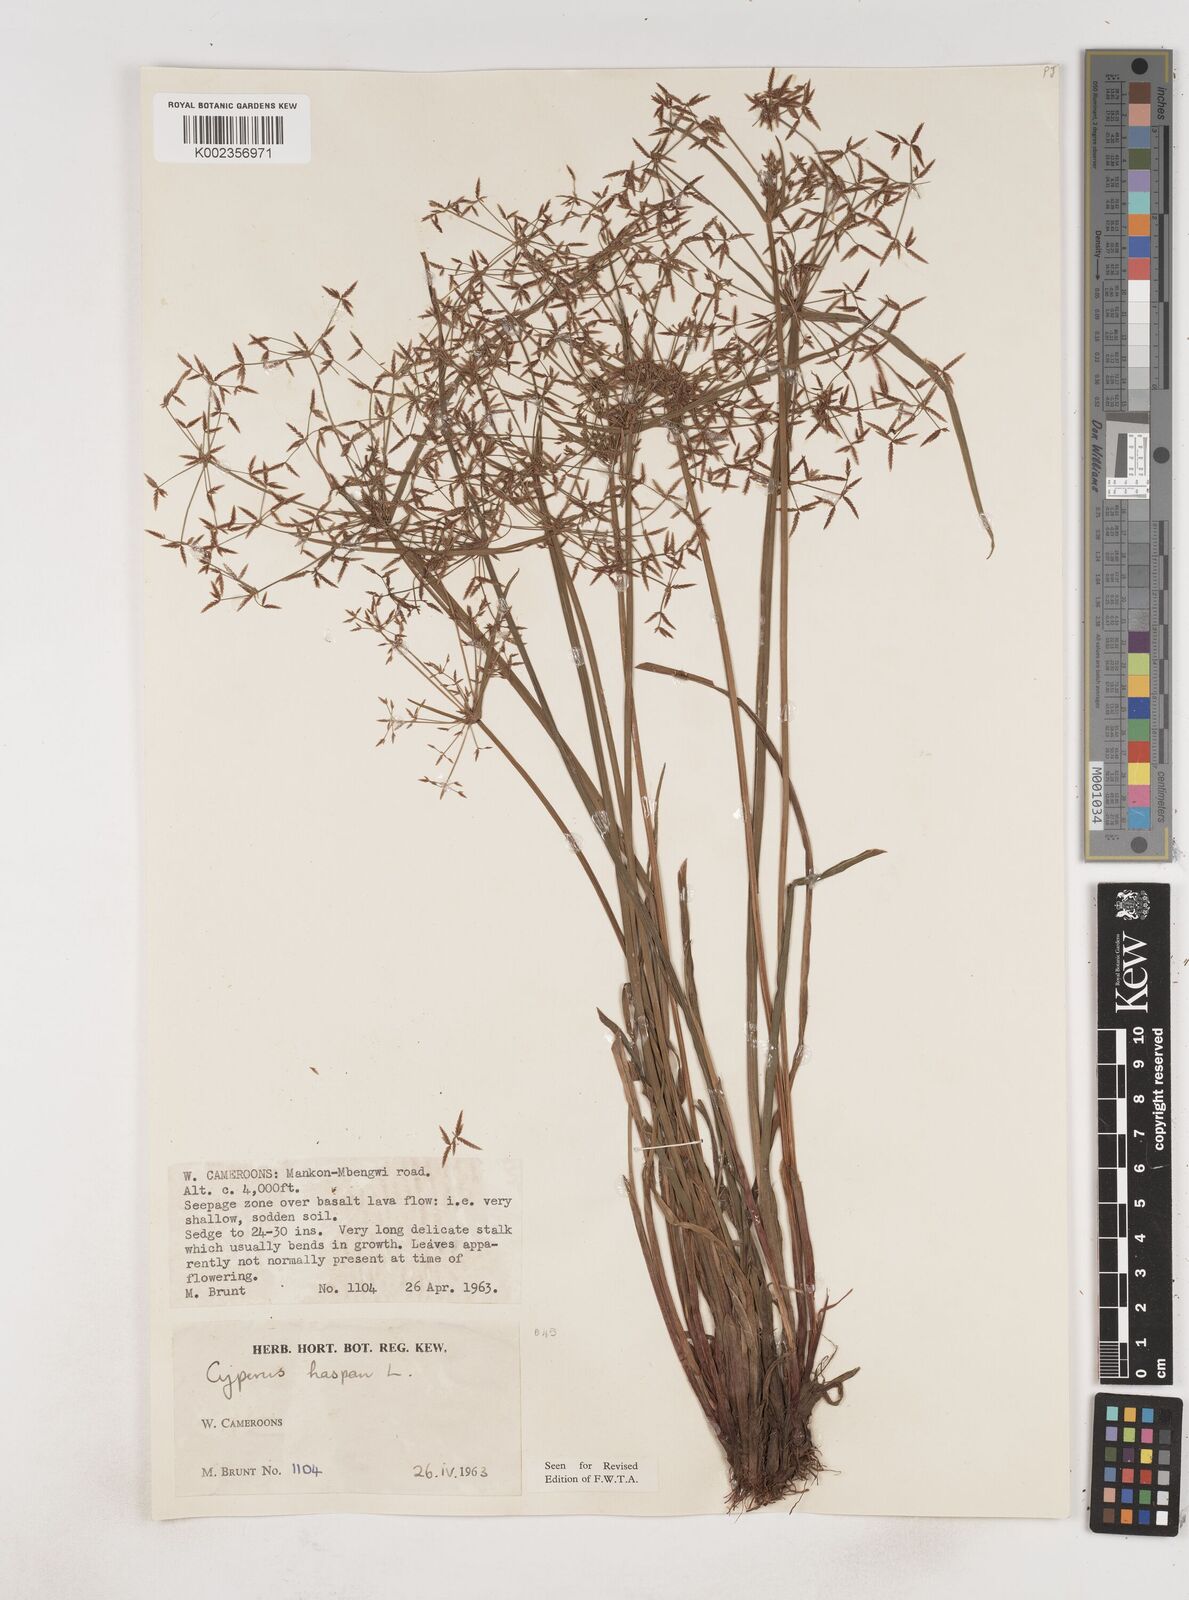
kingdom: Plantae
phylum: Tracheophyta
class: Liliopsida
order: Poales
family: Cyperaceae
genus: Cyperus
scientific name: Cyperus haspan
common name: Haspan flatsedge
